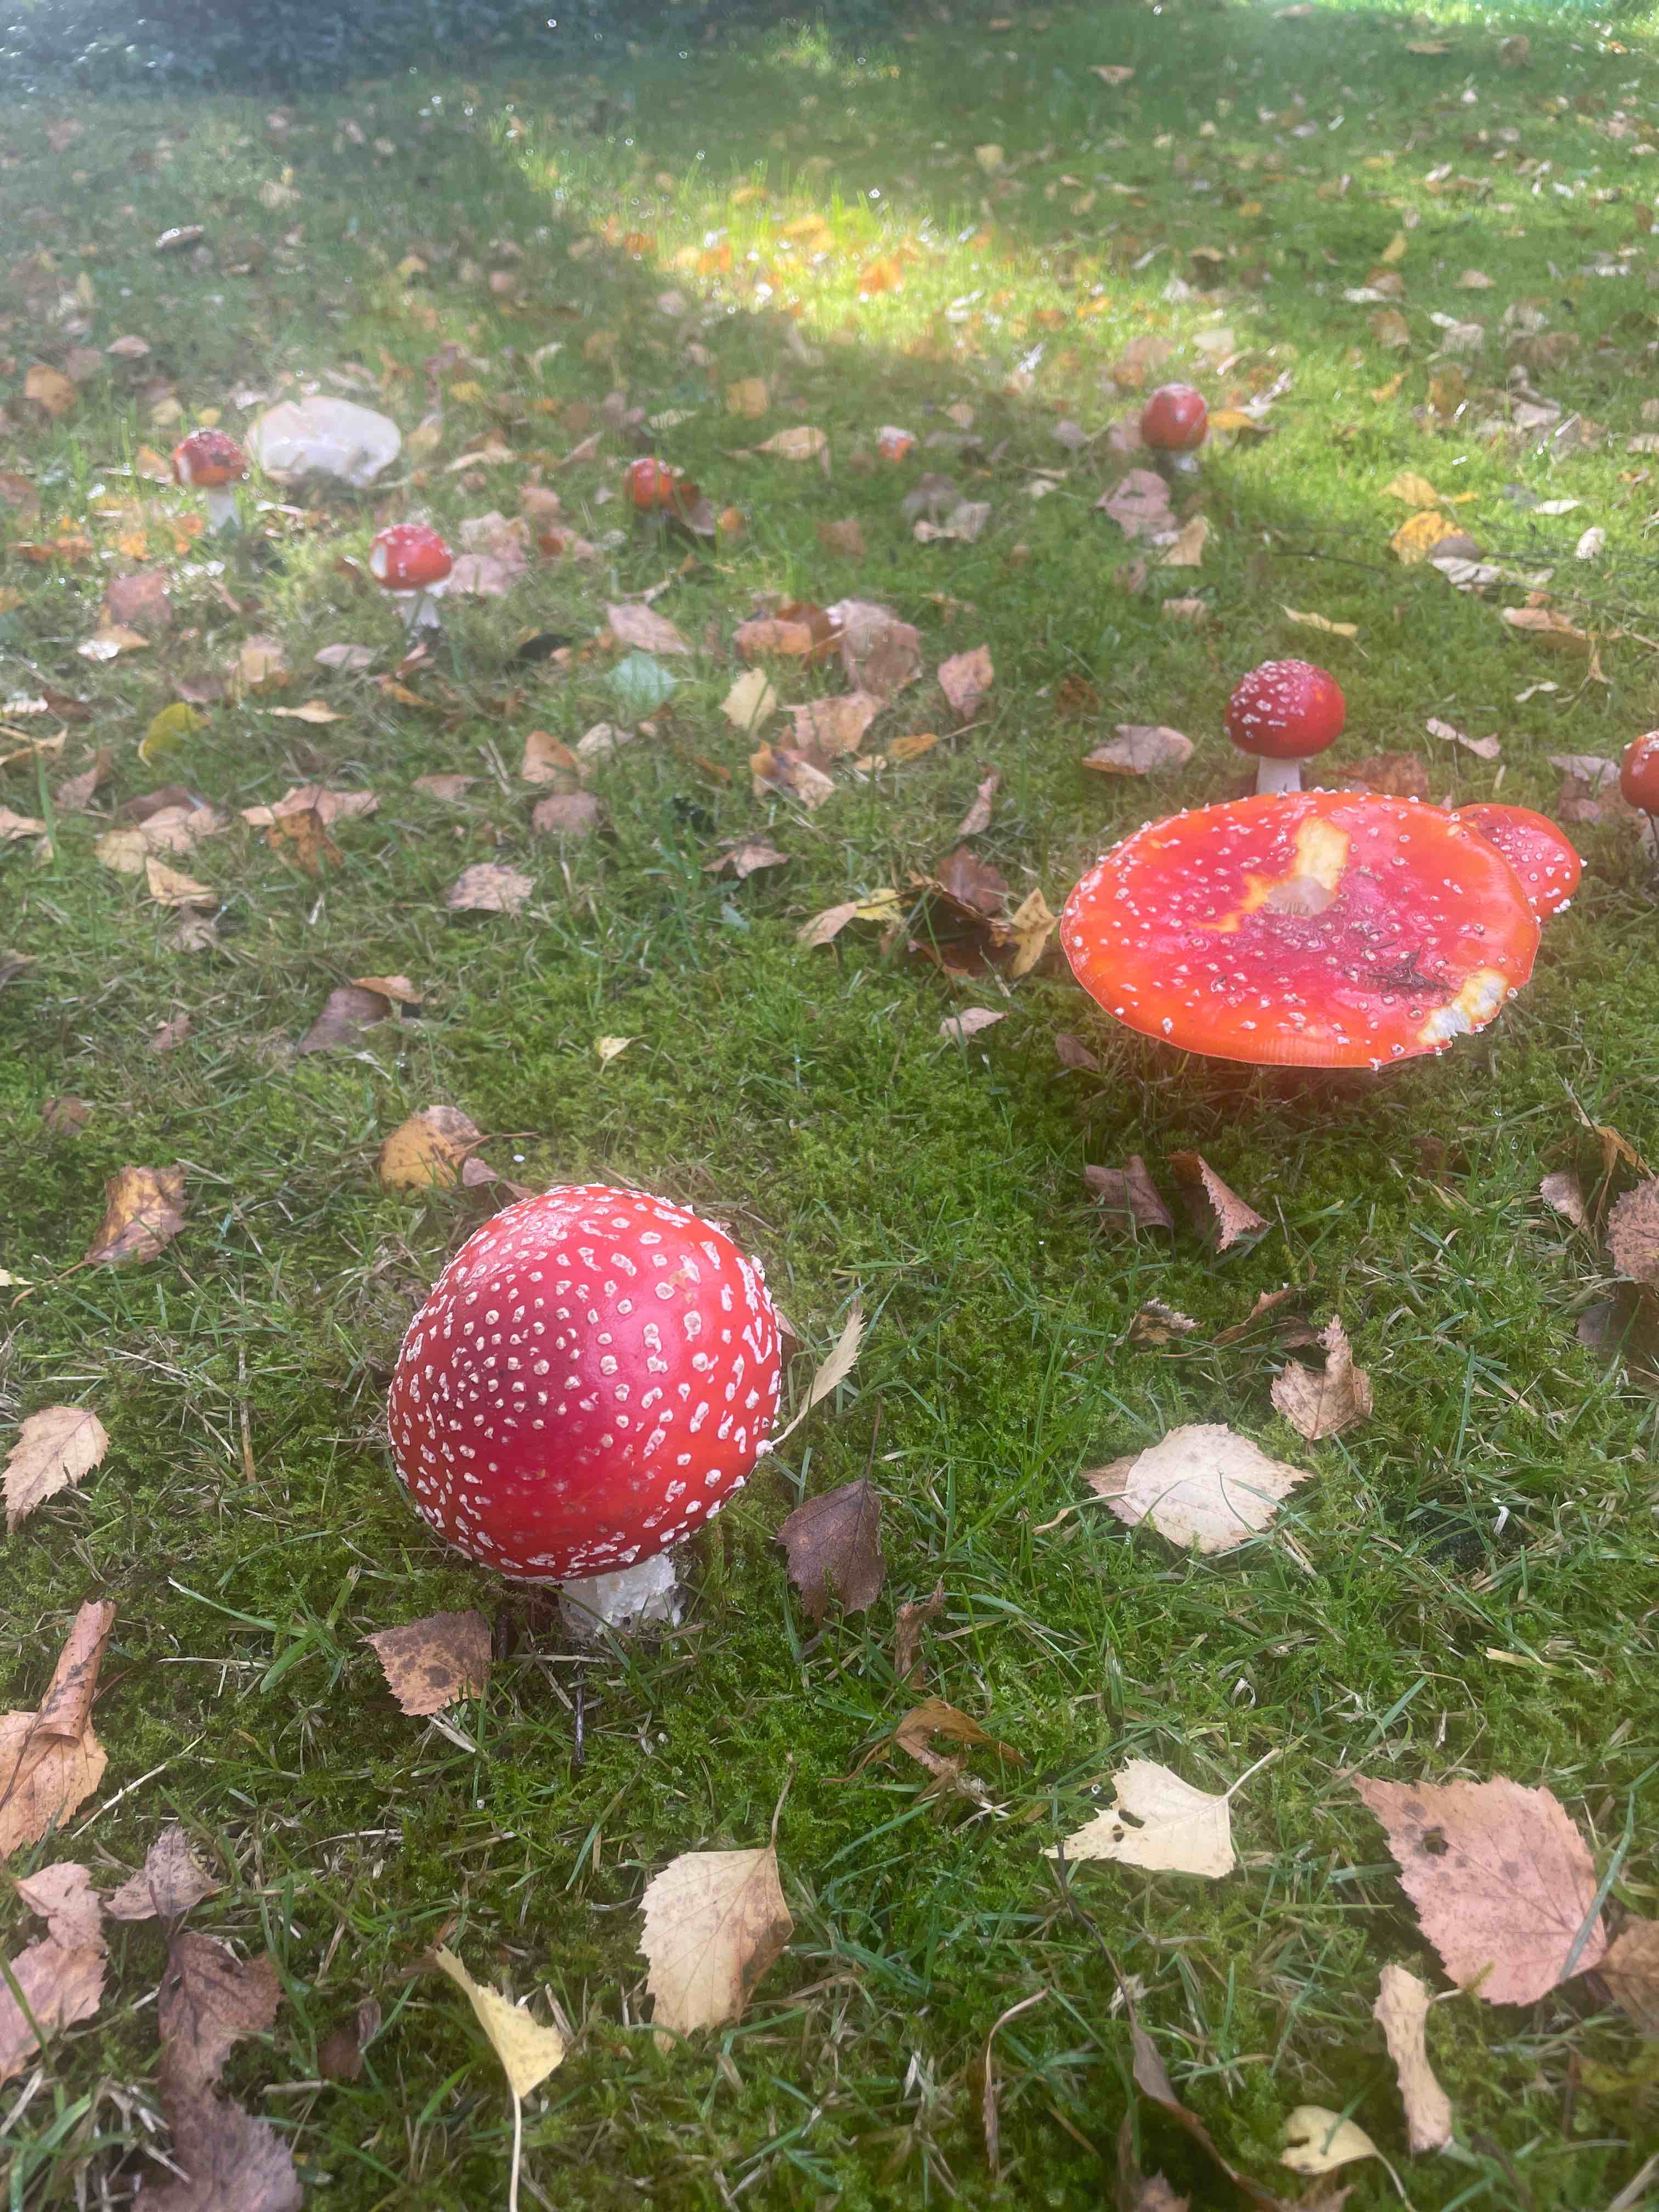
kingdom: Fungi
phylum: Basidiomycota
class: Agaricomycetes
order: Agaricales
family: Amanitaceae
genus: Amanita
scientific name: Amanita muscaria
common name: rød fluesvamp
